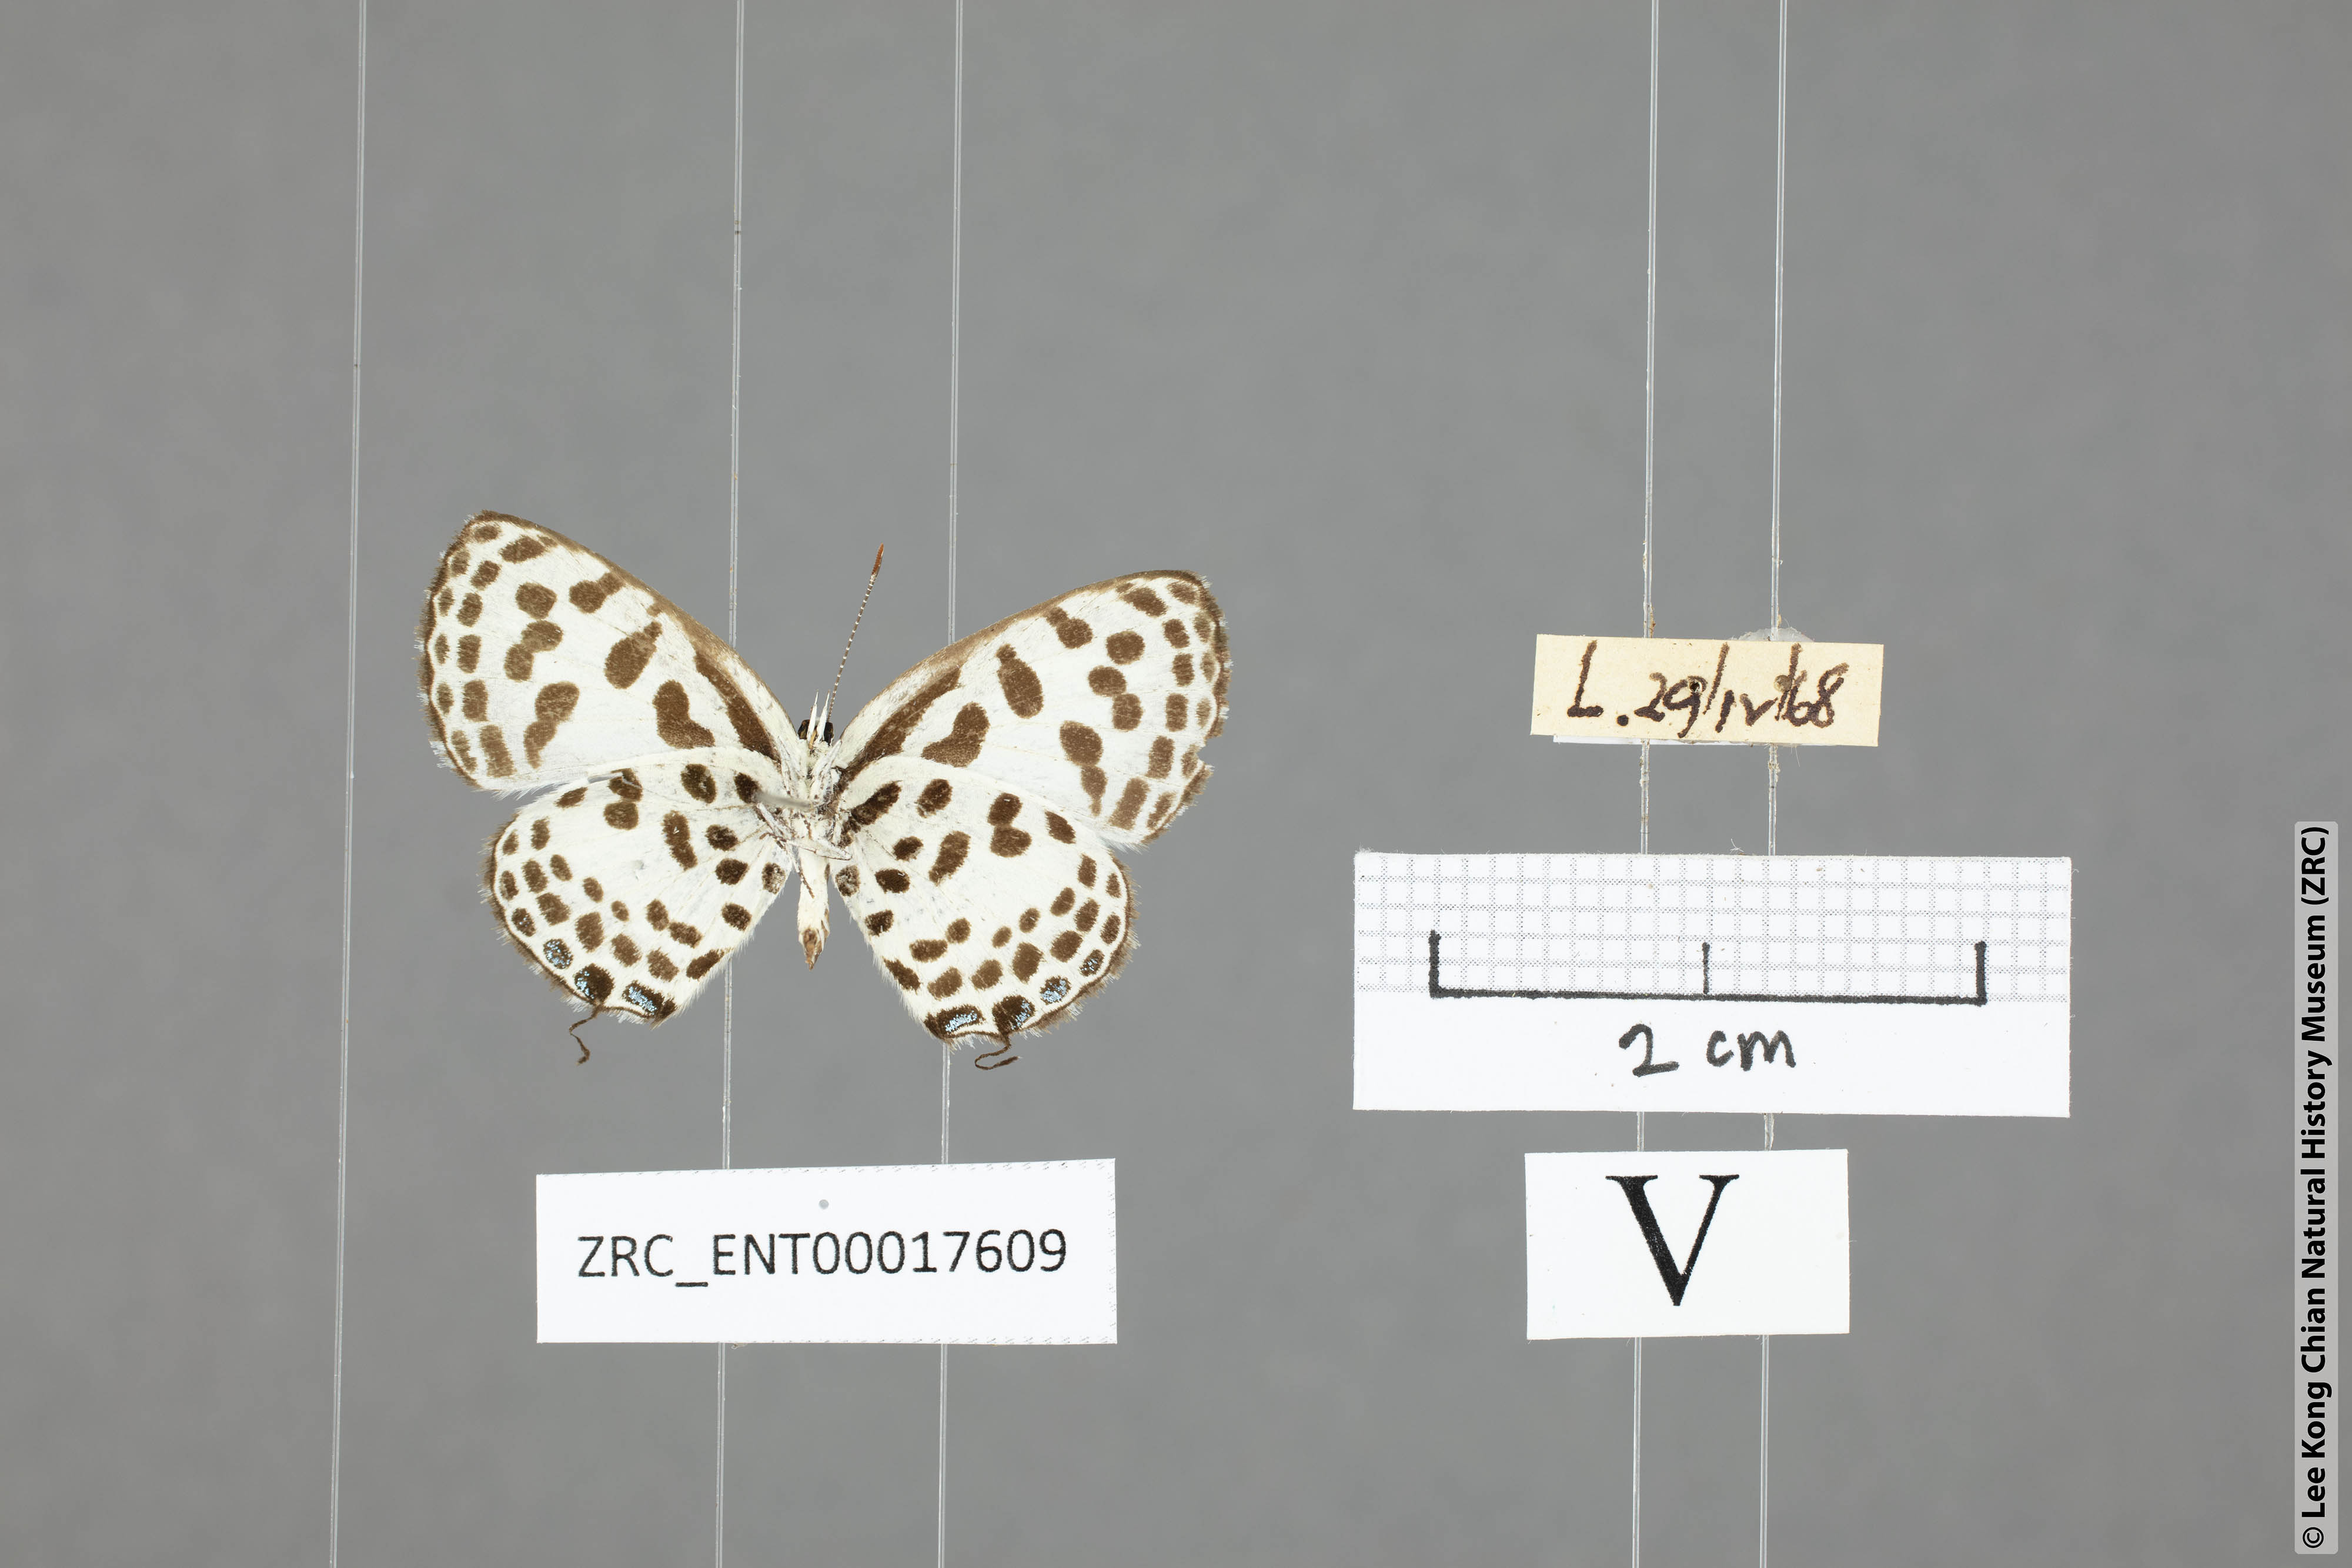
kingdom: Animalia
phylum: Arthropoda
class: Insecta
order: Lepidoptera
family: Lycaenidae
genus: Castalius
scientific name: Castalius rosimon
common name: Common pierrot
